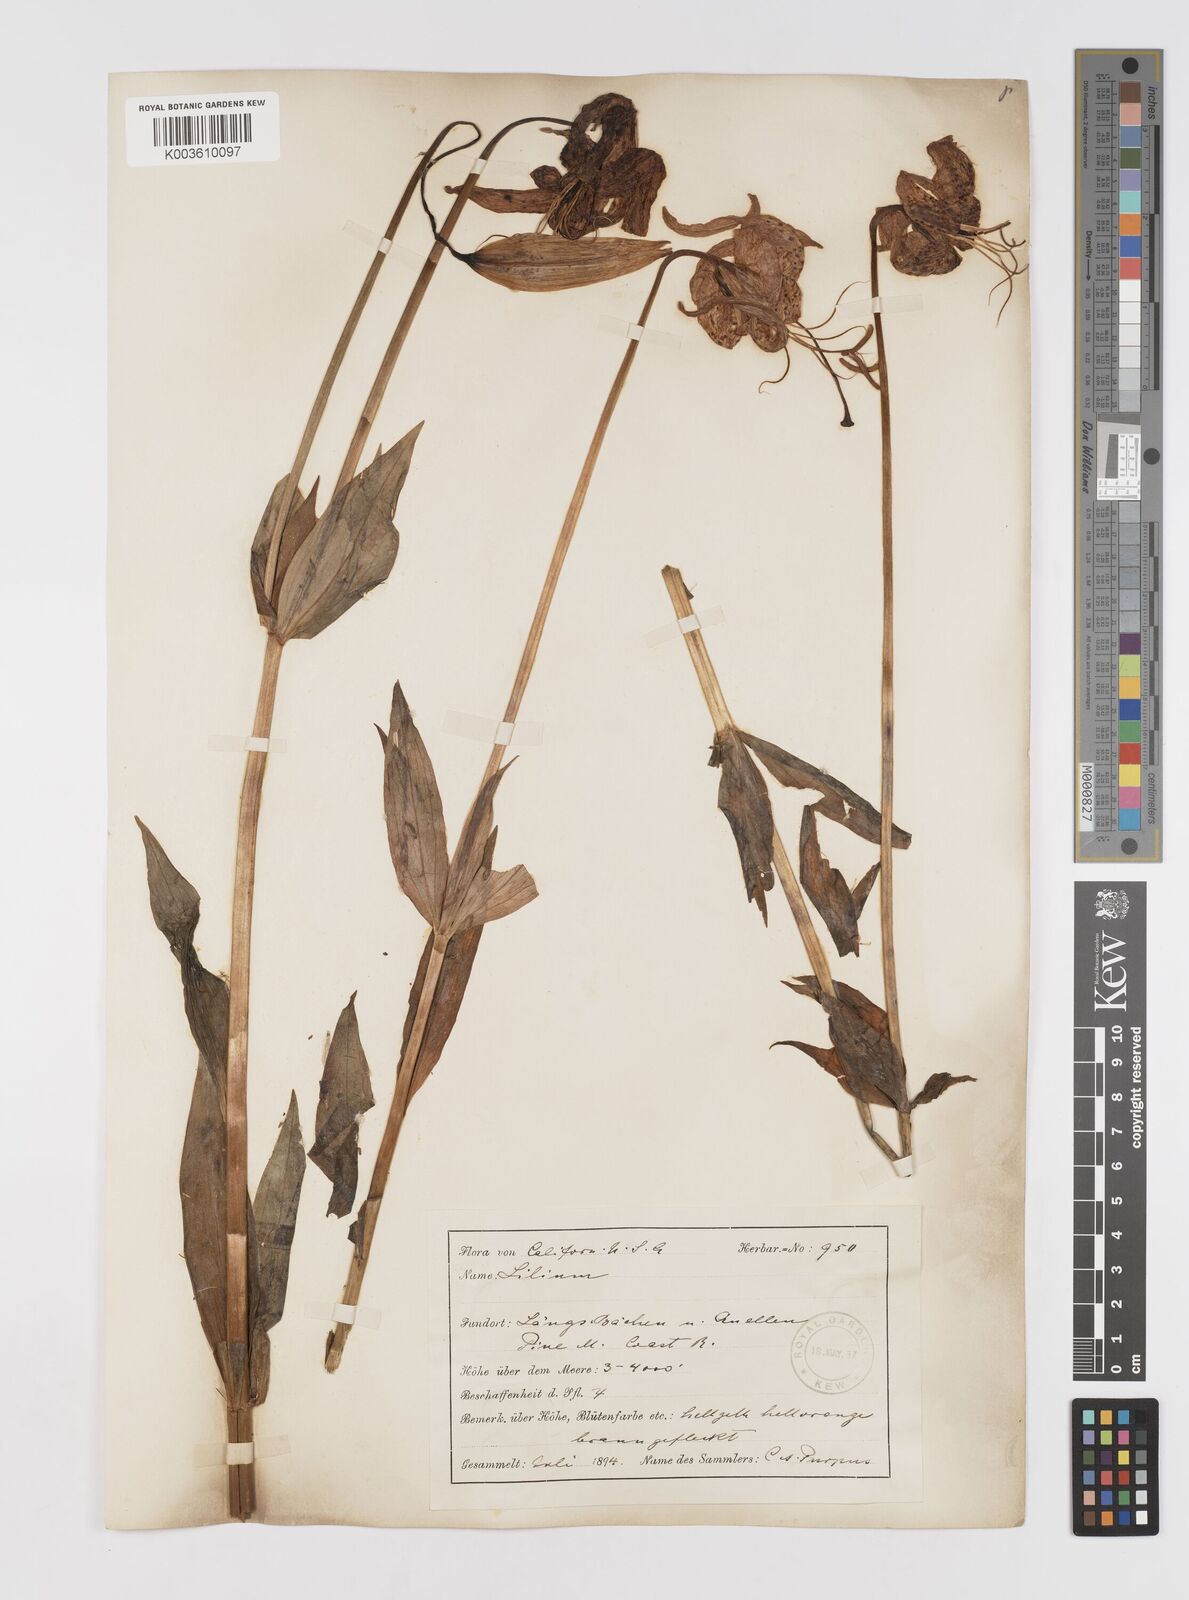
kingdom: Plantae
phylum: Tracheophyta
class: Liliopsida
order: Liliales
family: Liliaceae
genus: Lilium
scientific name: Lilium pardalinum
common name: Panther lily
